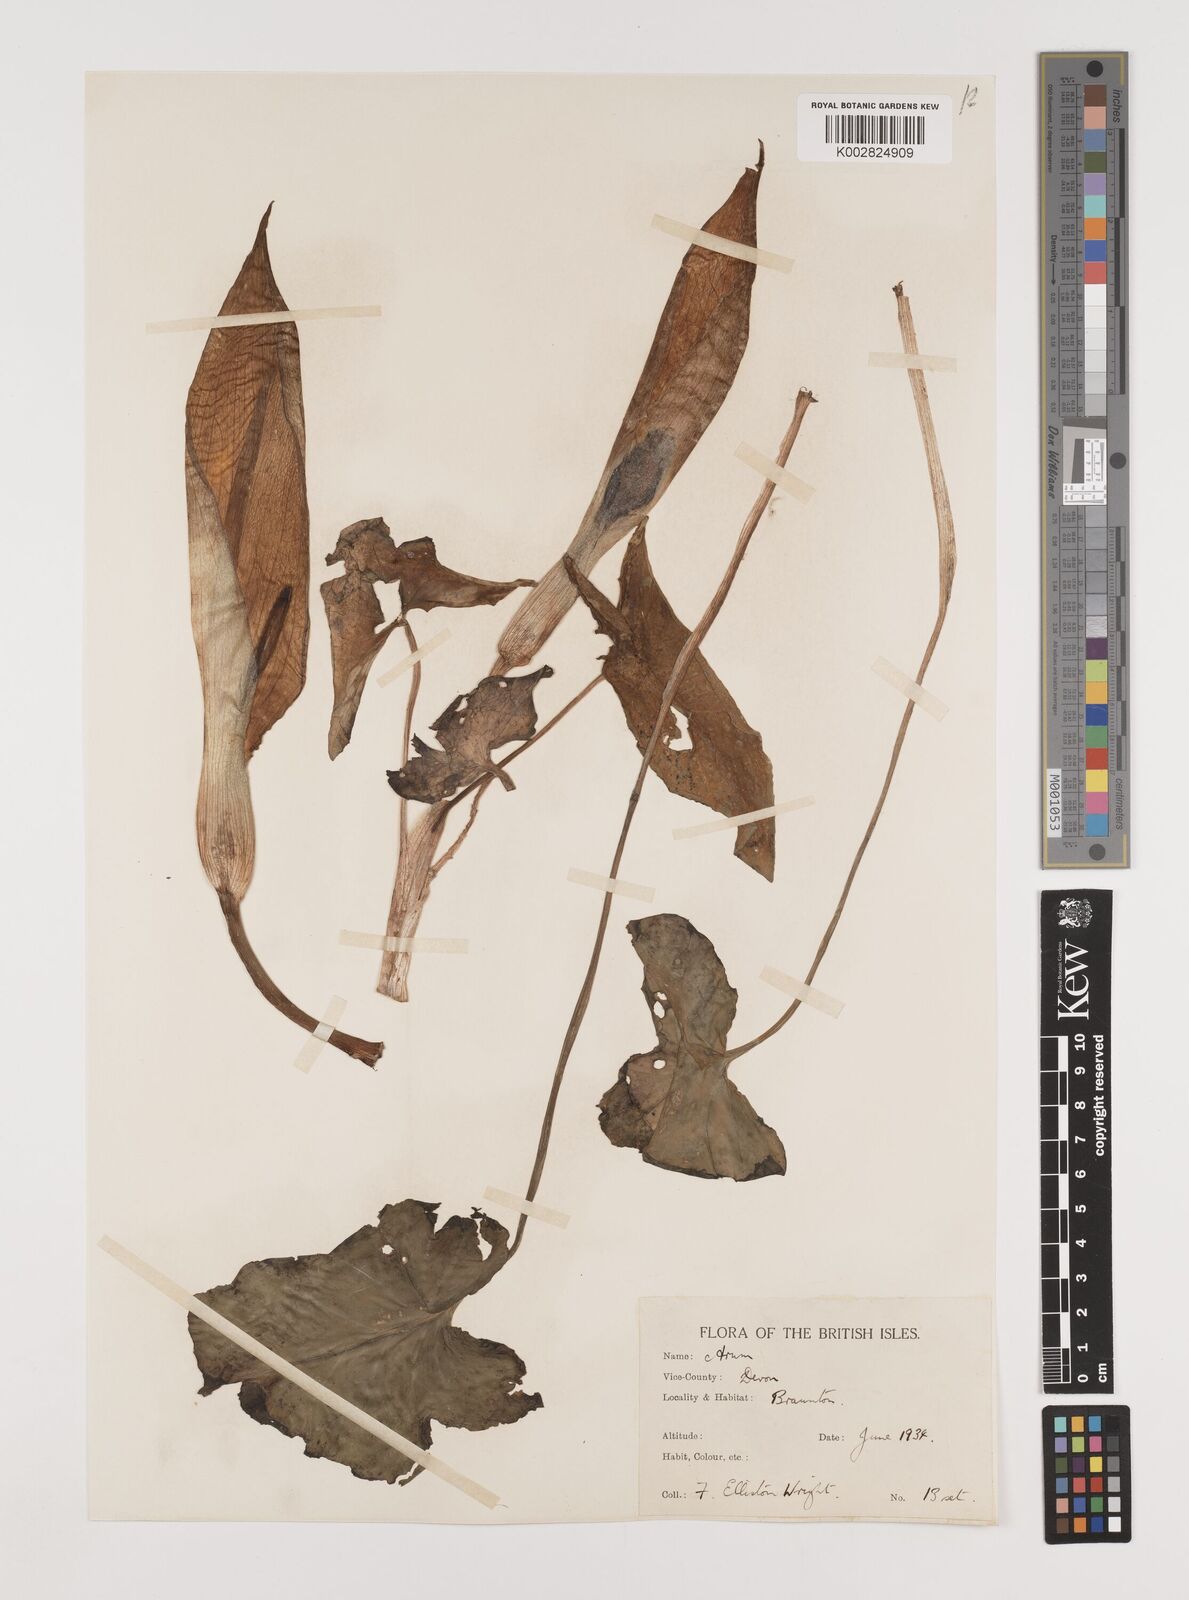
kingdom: Plantae
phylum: Tracheophyta
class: Liliopsida
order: Alismatales
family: Araceae
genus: Arum
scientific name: Arum italicum
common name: Italian lords-and-ladies
